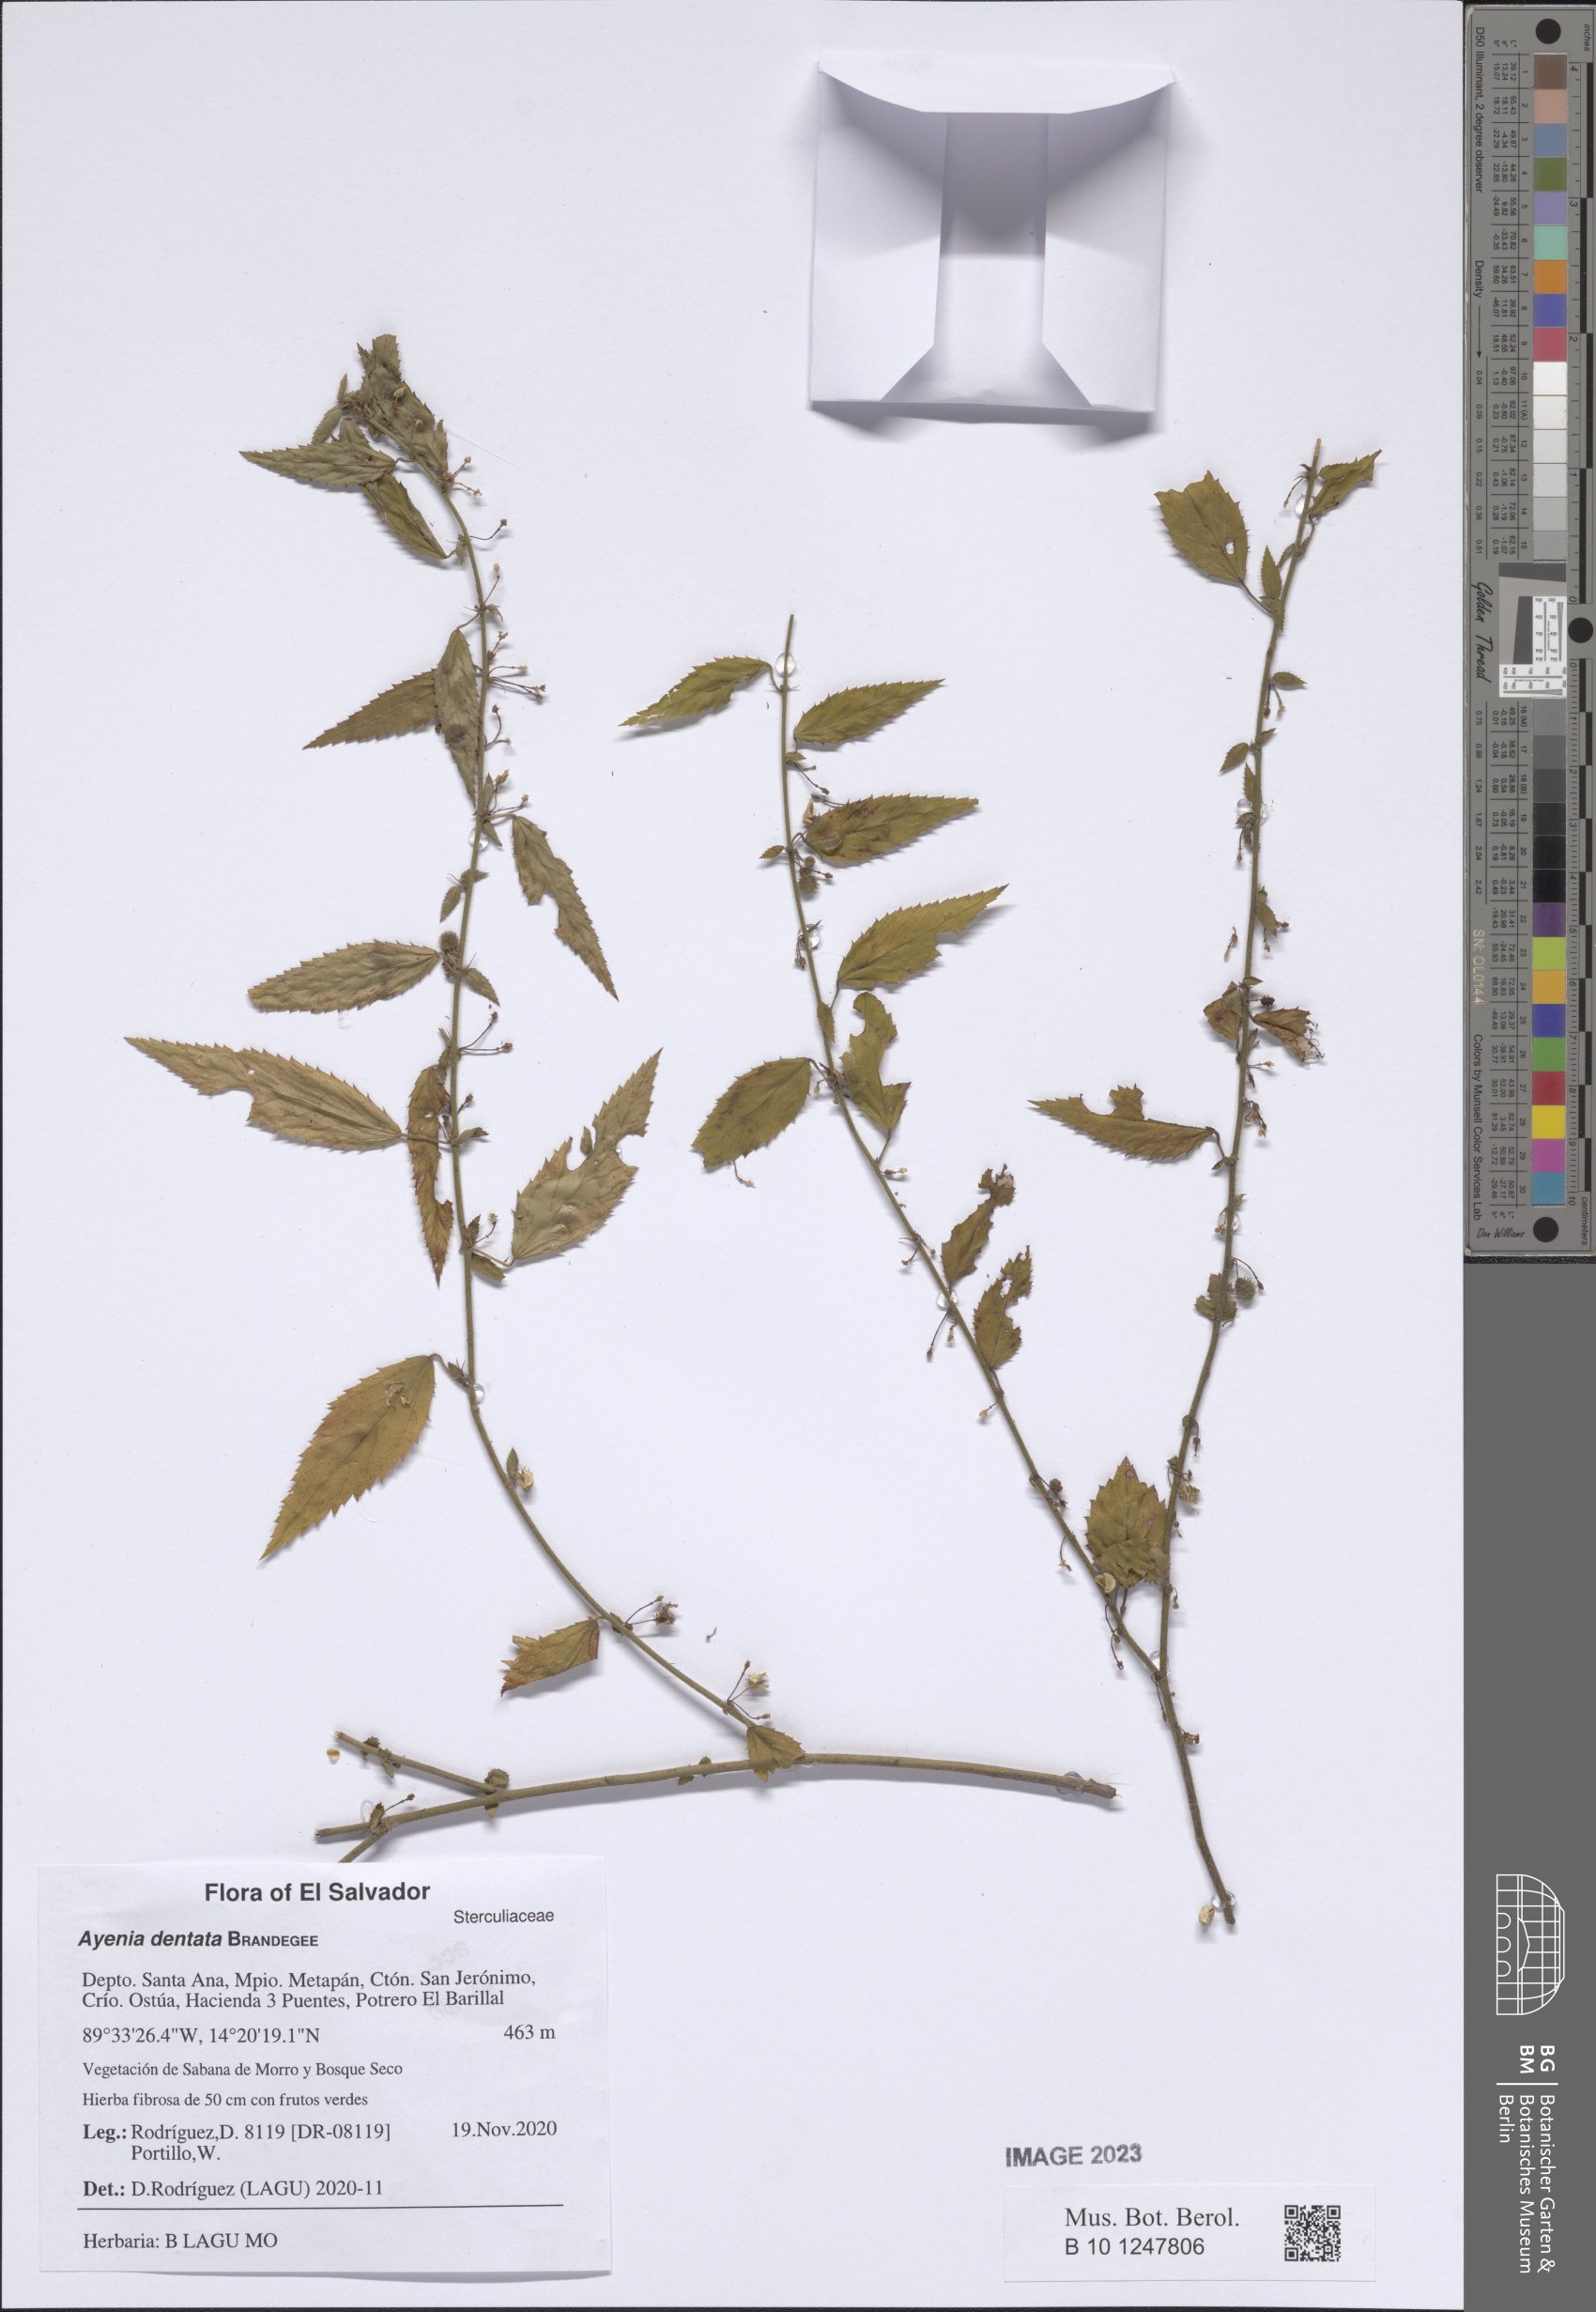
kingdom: Plantae
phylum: Tracheophyta
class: Magnoliopsida
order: Malvales
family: Malvaceae
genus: Ayenia
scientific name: Ayenia dentata
